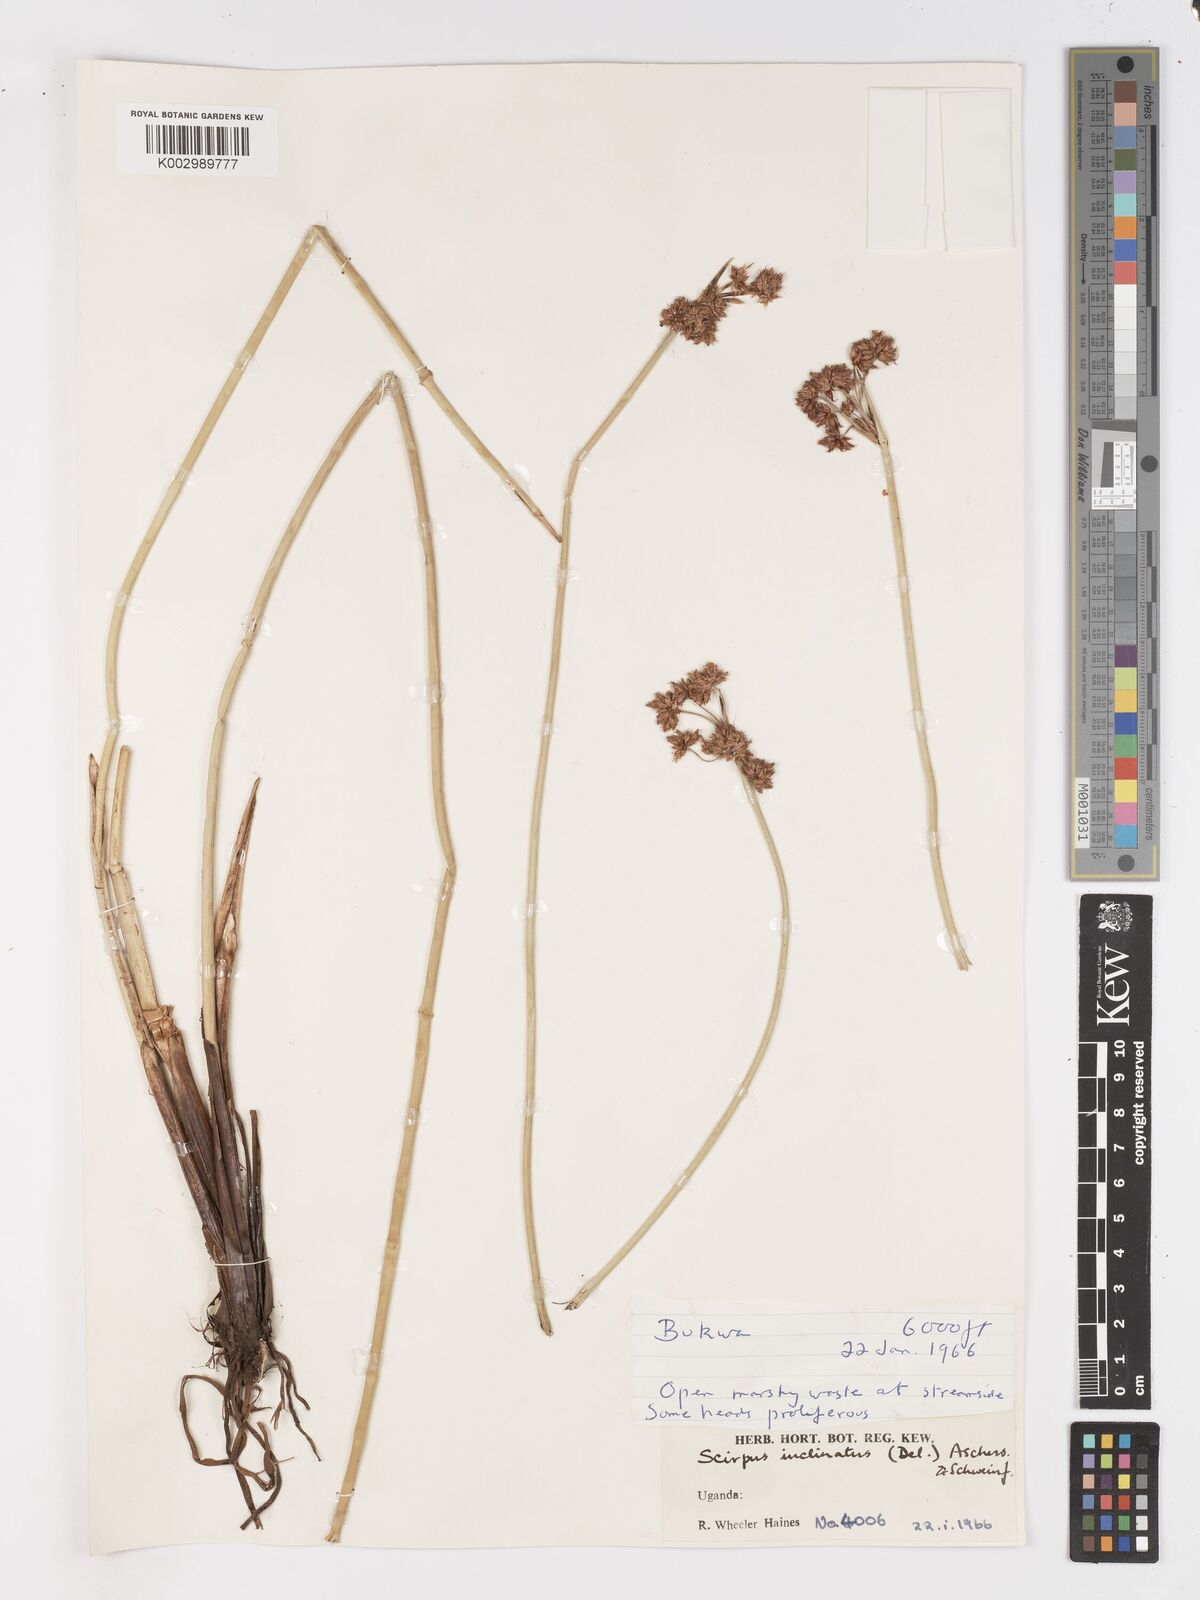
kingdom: Plantae
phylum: Tracheophyta
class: Liliopsida
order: Poales
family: Cyperaceae
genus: Schoenoplectiella
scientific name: Schoenoplectiella brachyceras
